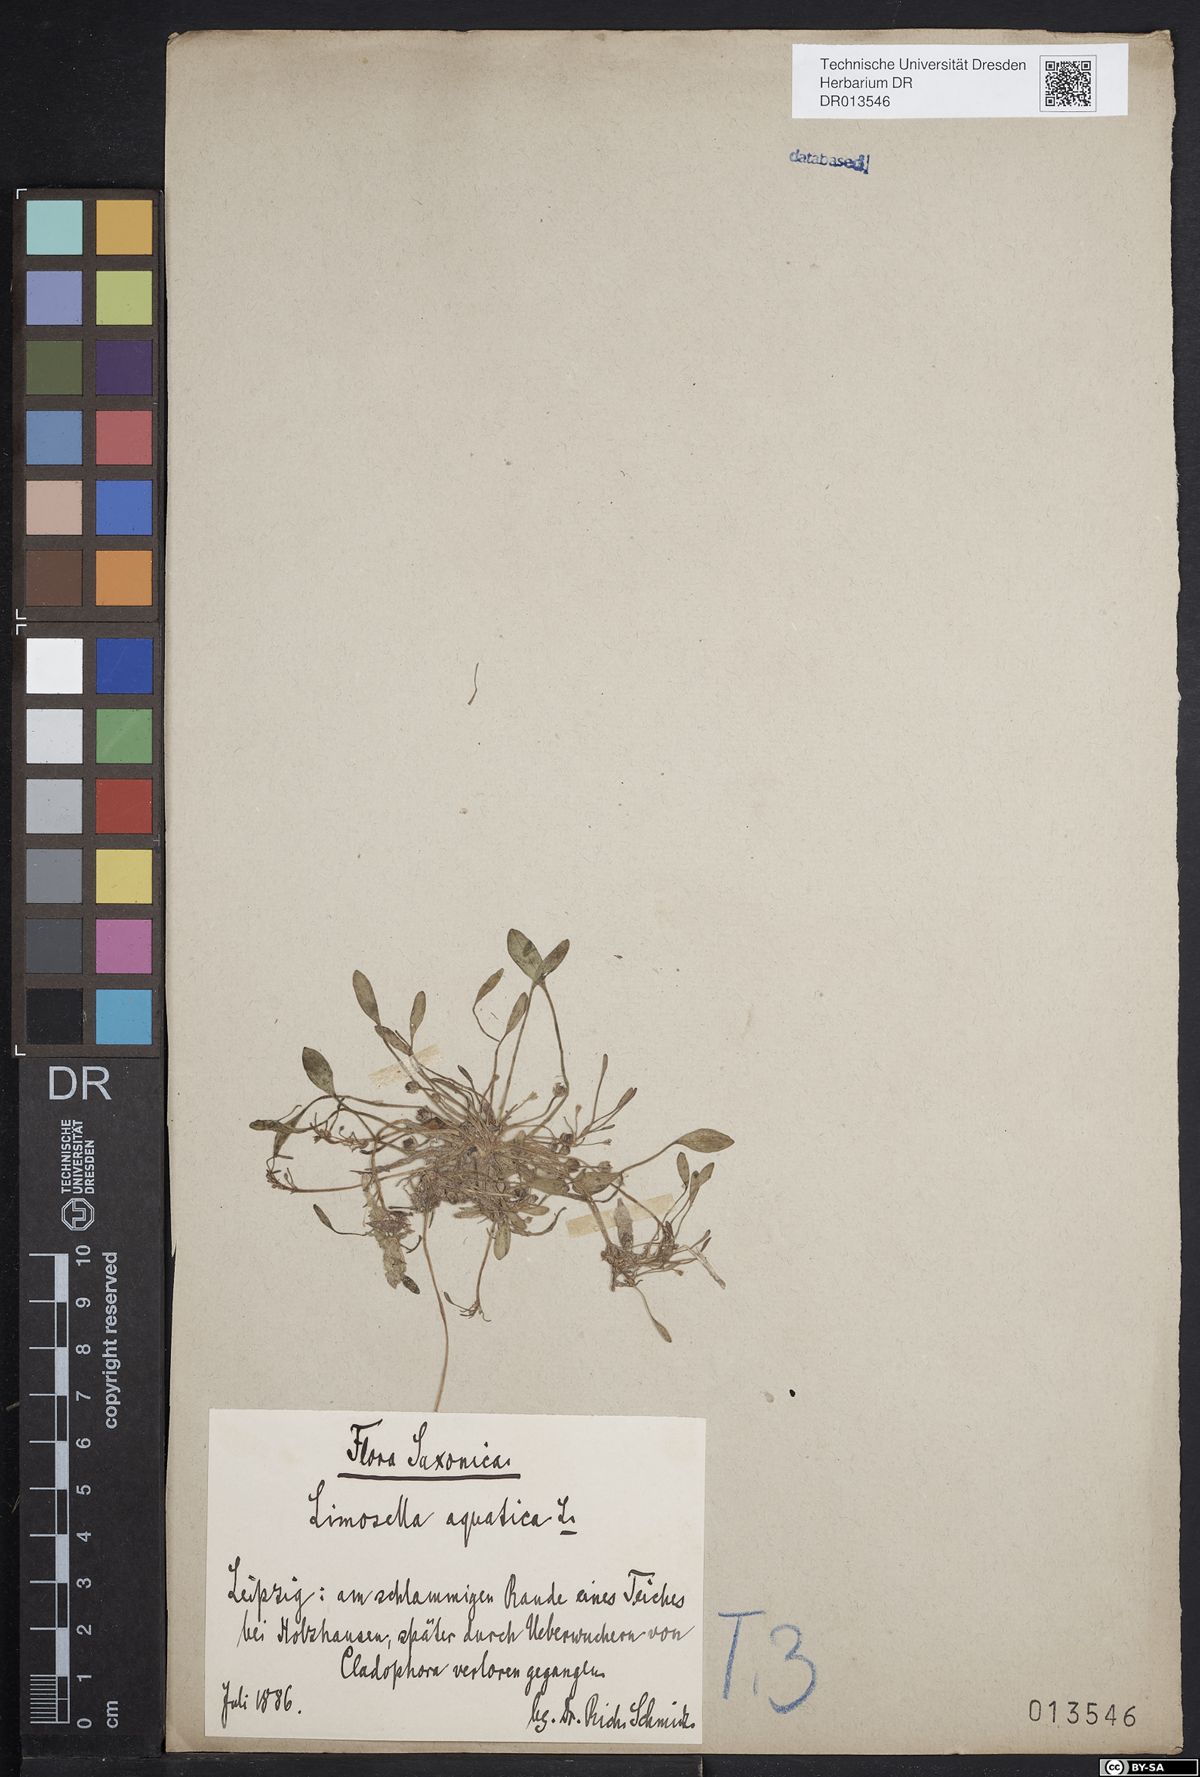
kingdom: Plantae
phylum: Tracheophyta
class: Magnoliopsida
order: Lamiales
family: Scrophulariaceae
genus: Limosella
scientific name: Limosella aquatica
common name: Mudwort
